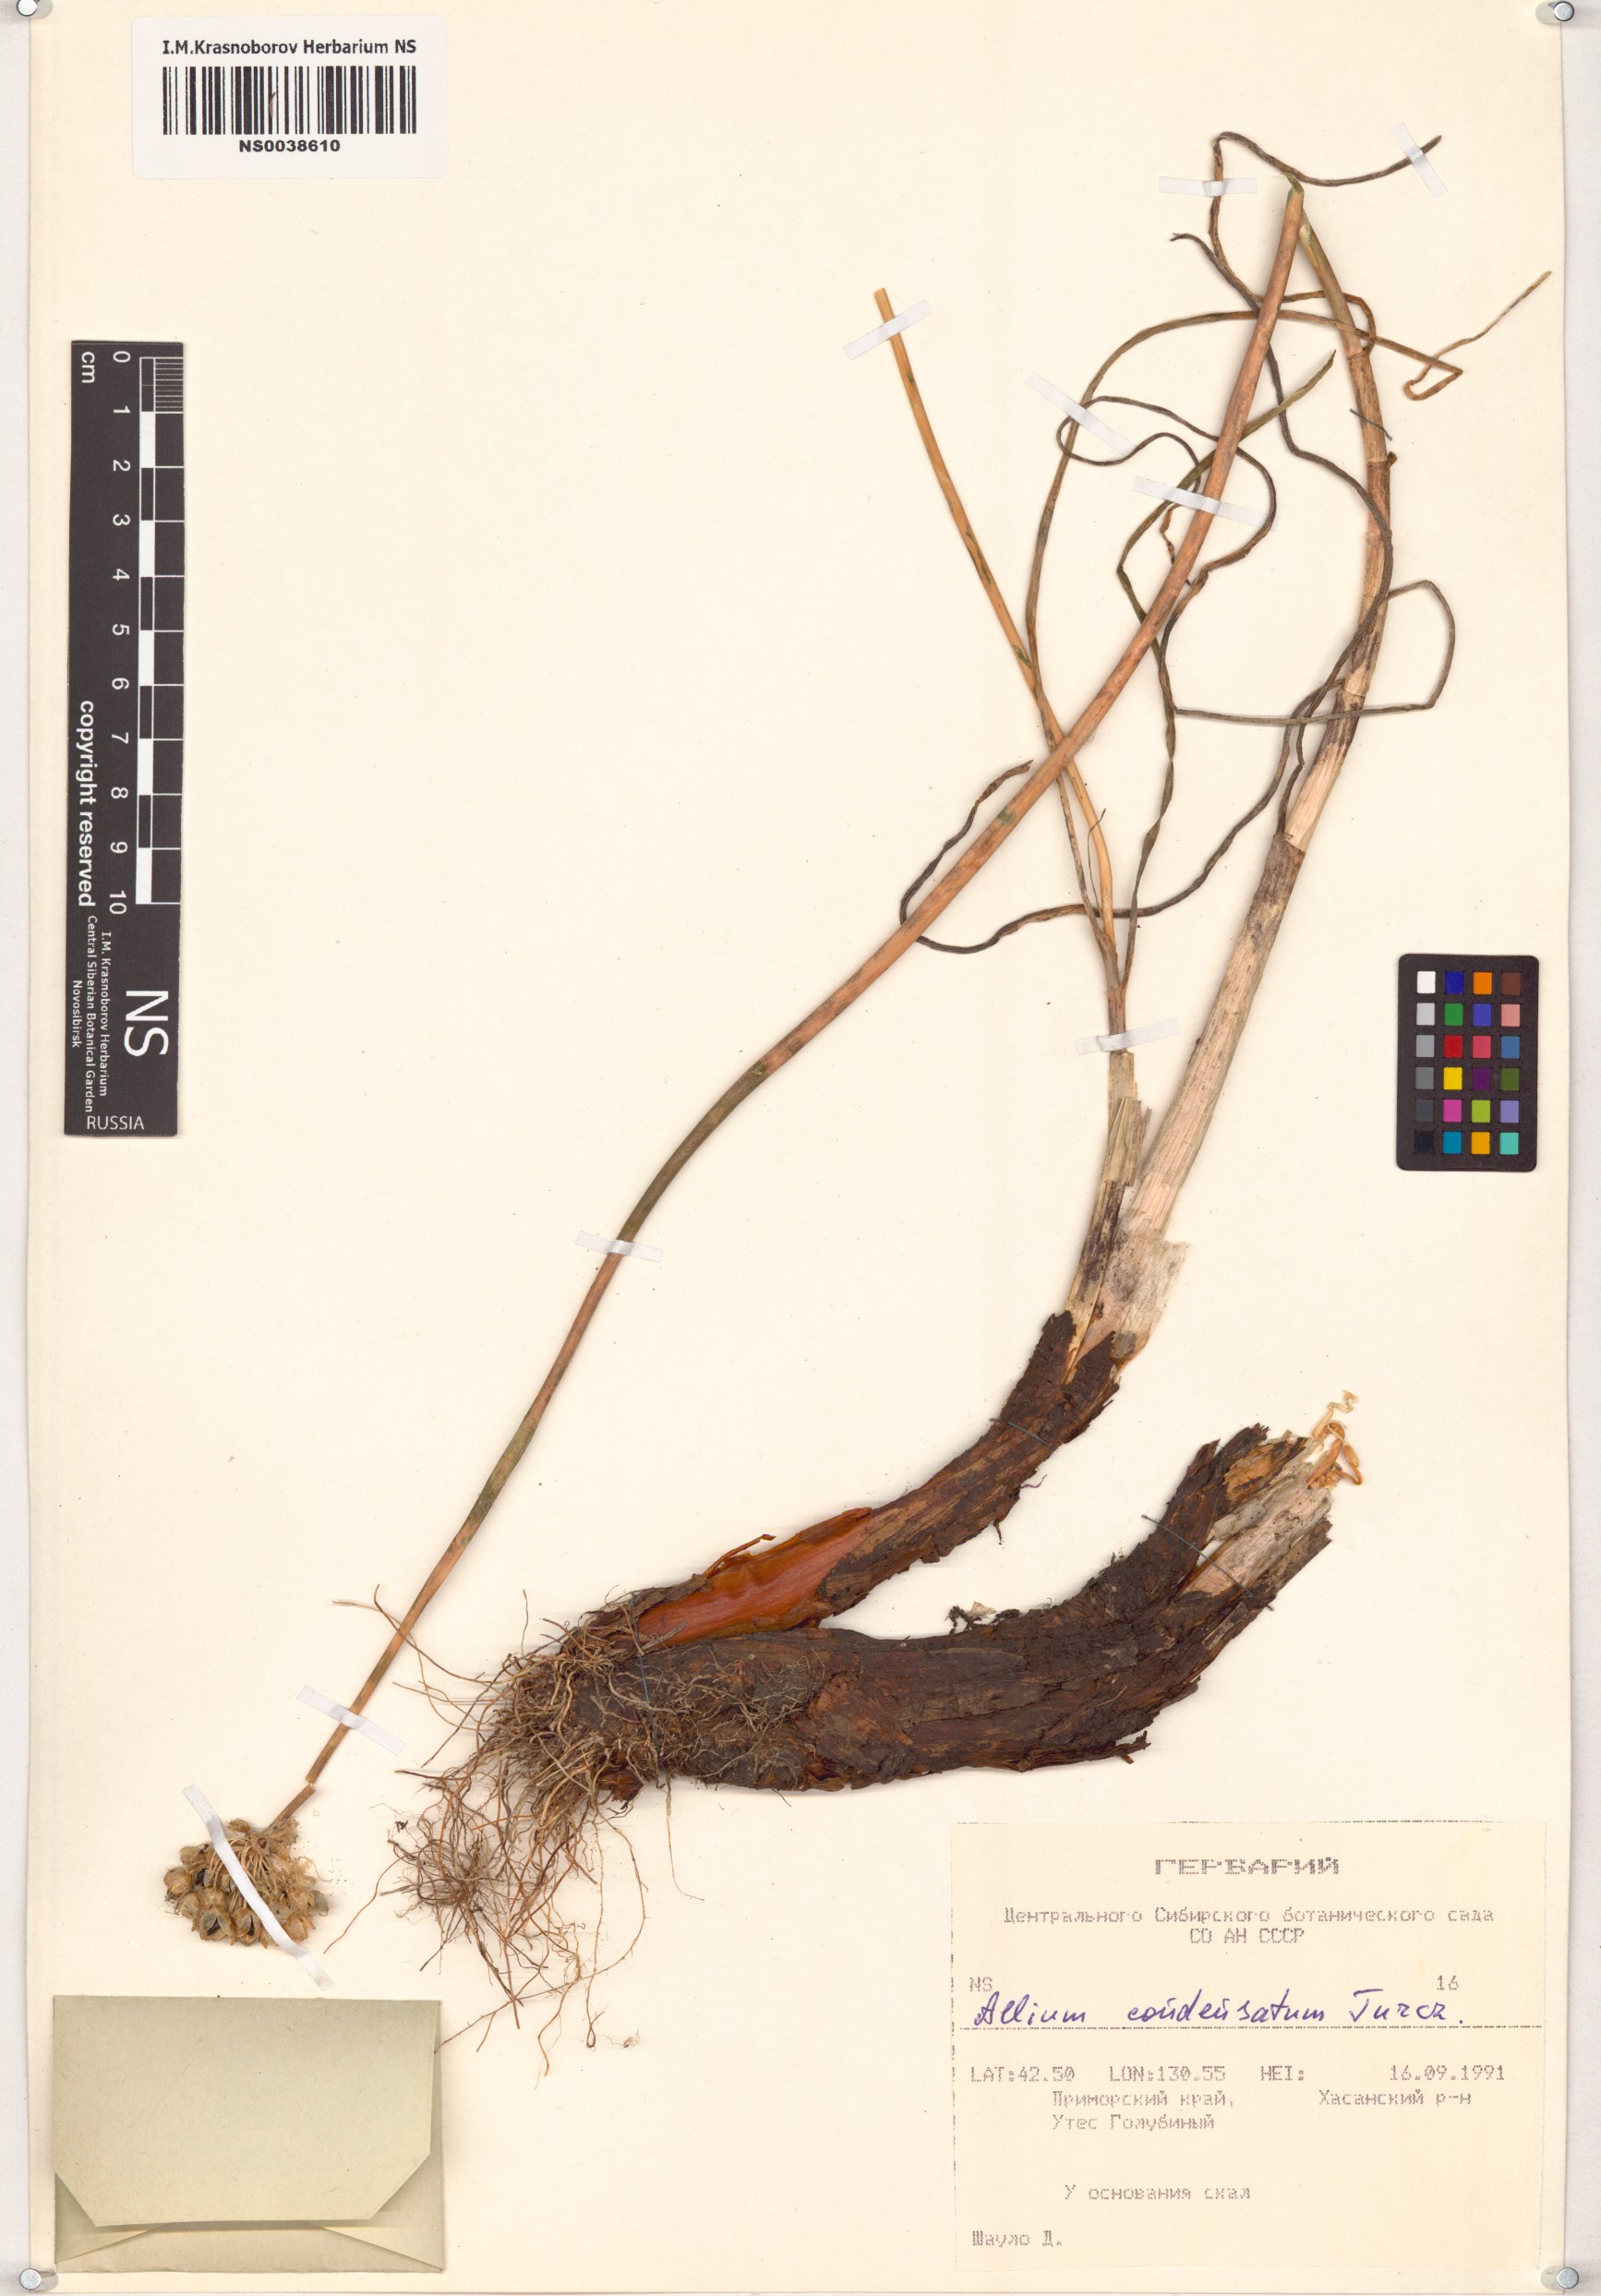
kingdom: Plantae
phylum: Tracheophyta
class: Liliopsida
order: Asparagales
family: Amaryllidaceae
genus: Allium
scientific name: Allium condensatum
